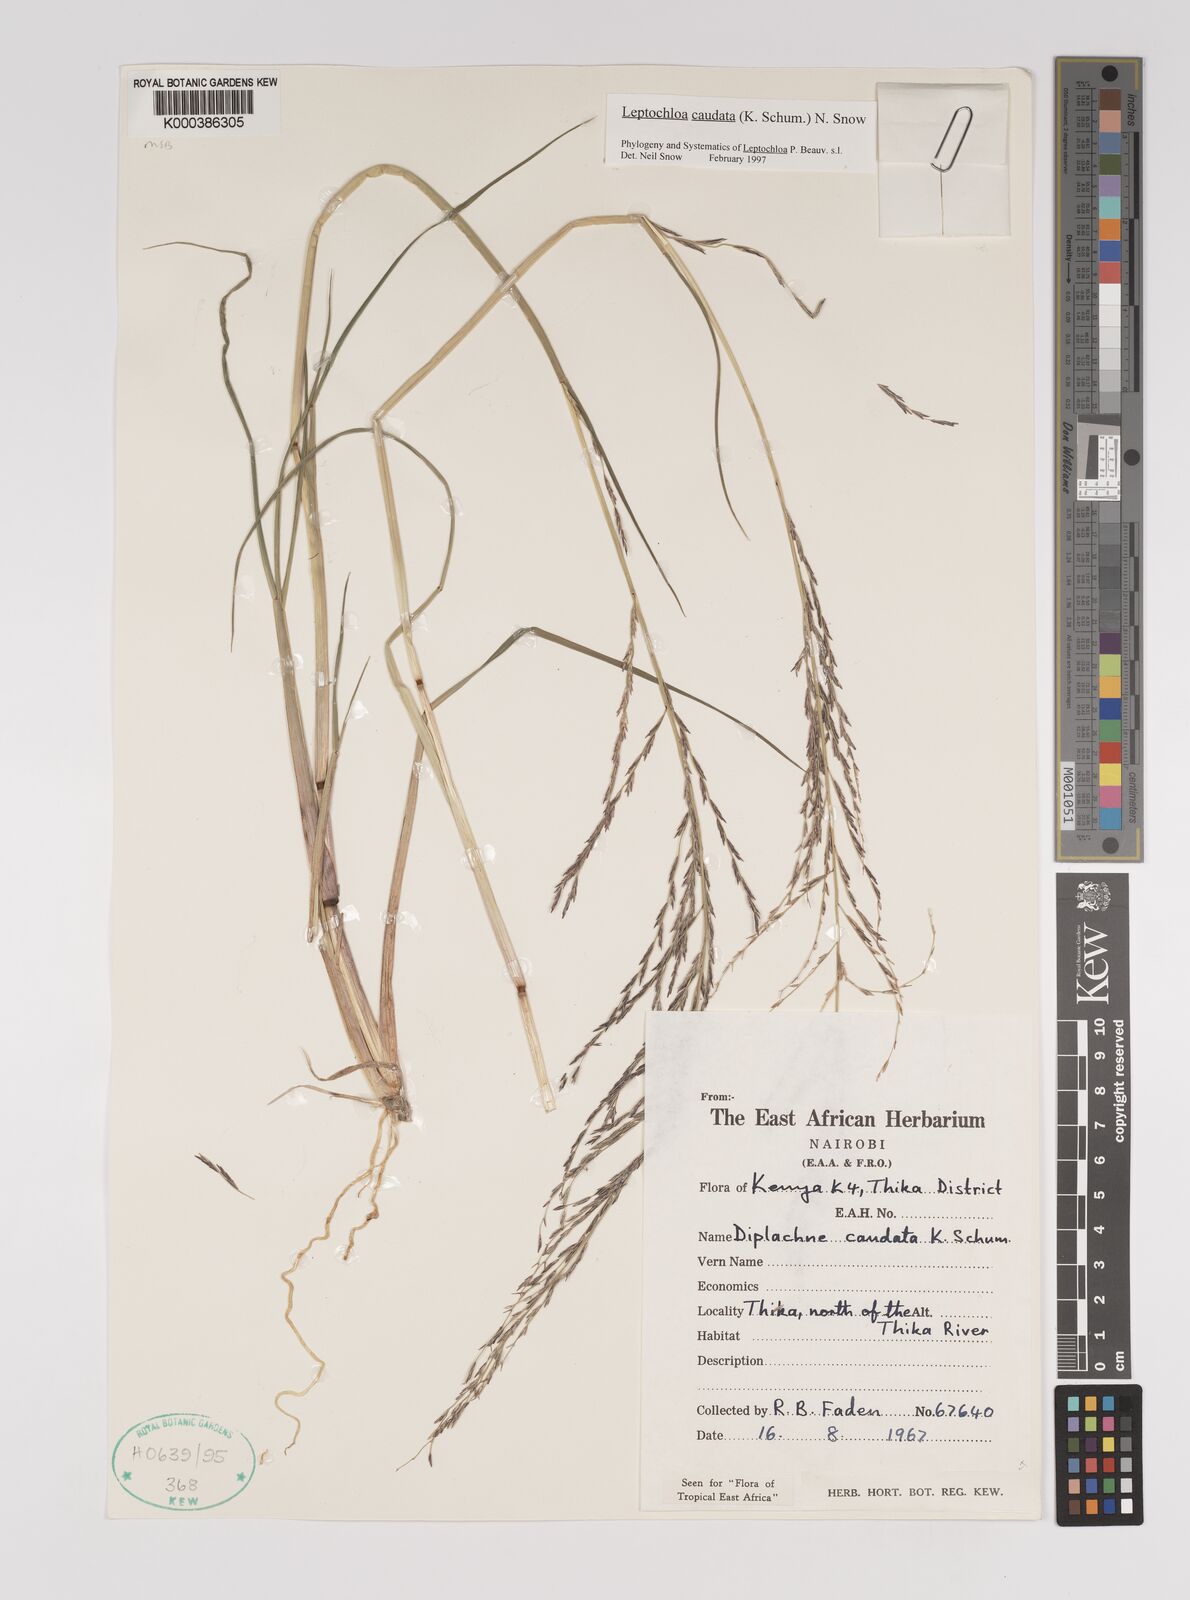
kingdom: Plantae
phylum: Tracheophyta
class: Liliopsida
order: Poales
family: Poaceae
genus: Leptochloa
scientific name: Leptochloa caudata
